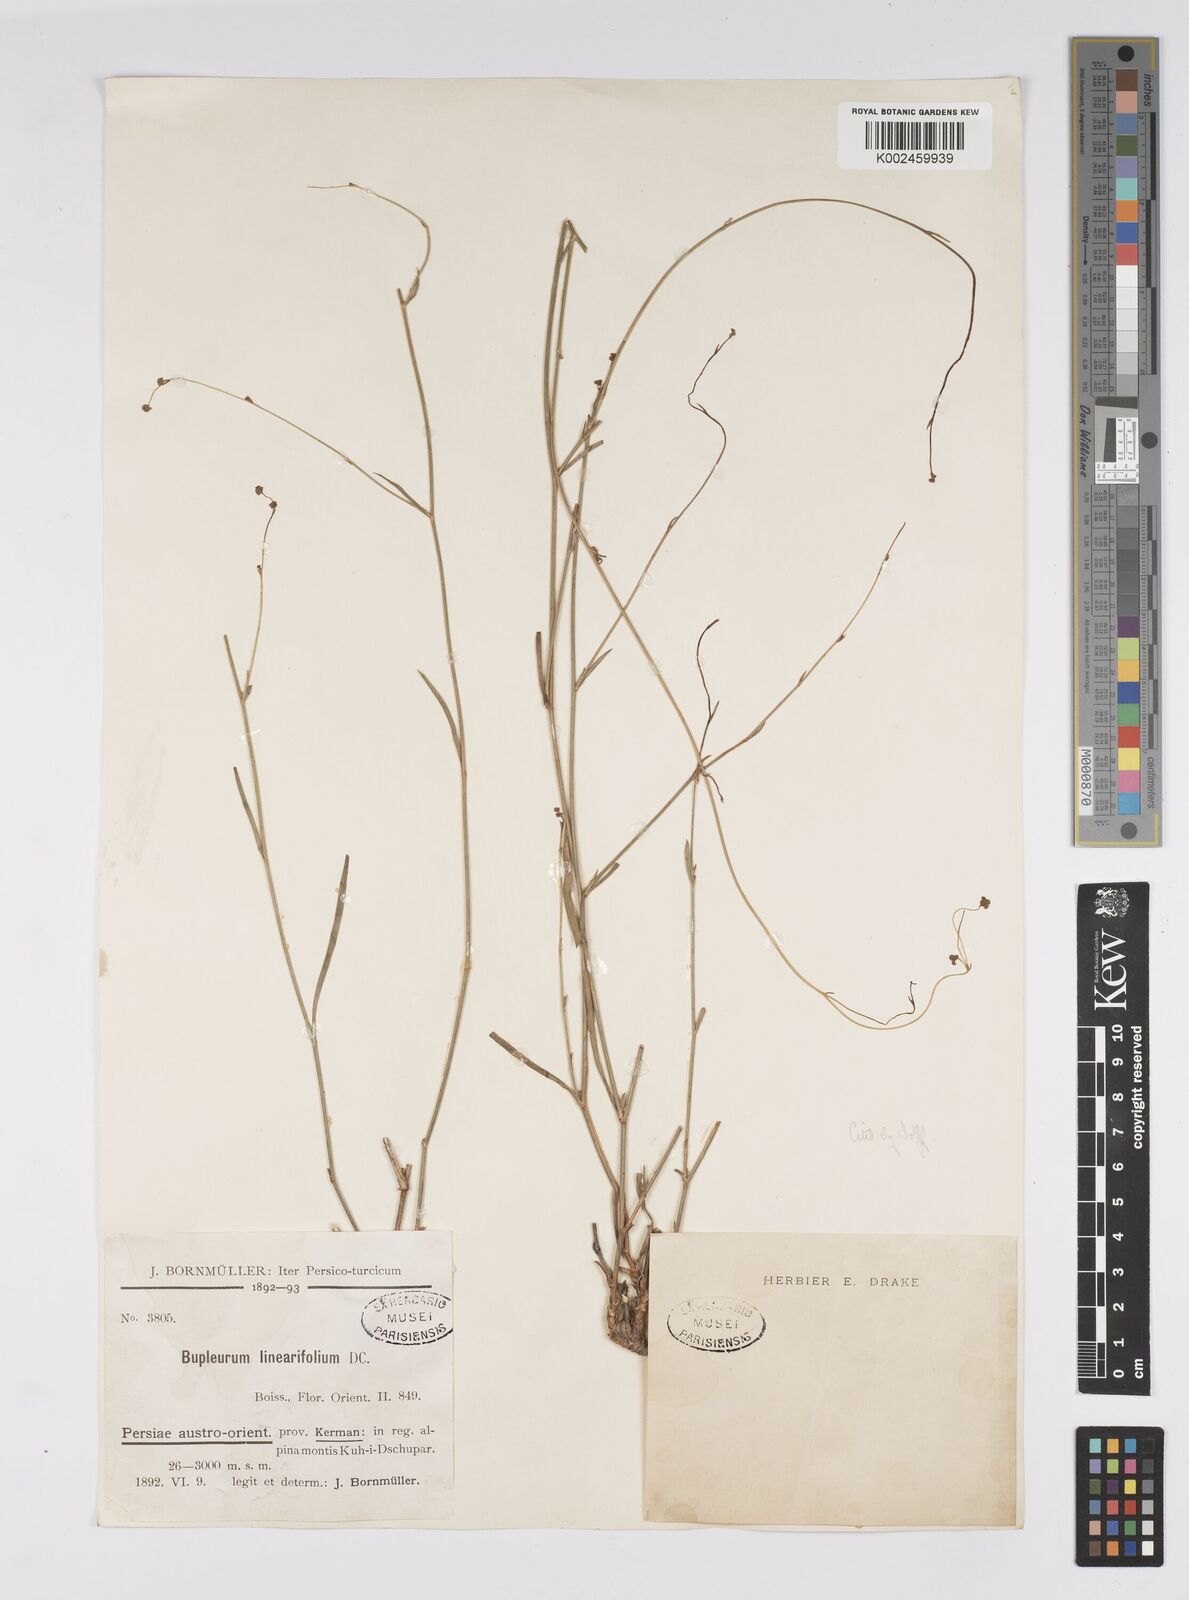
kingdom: Plantae
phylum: Tracheophyta
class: Magnoliopsida
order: Apiales
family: Apiaceae
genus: Bupleurum
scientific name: Bupleurum falcatum
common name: Sickle-leaved hare's-ear
